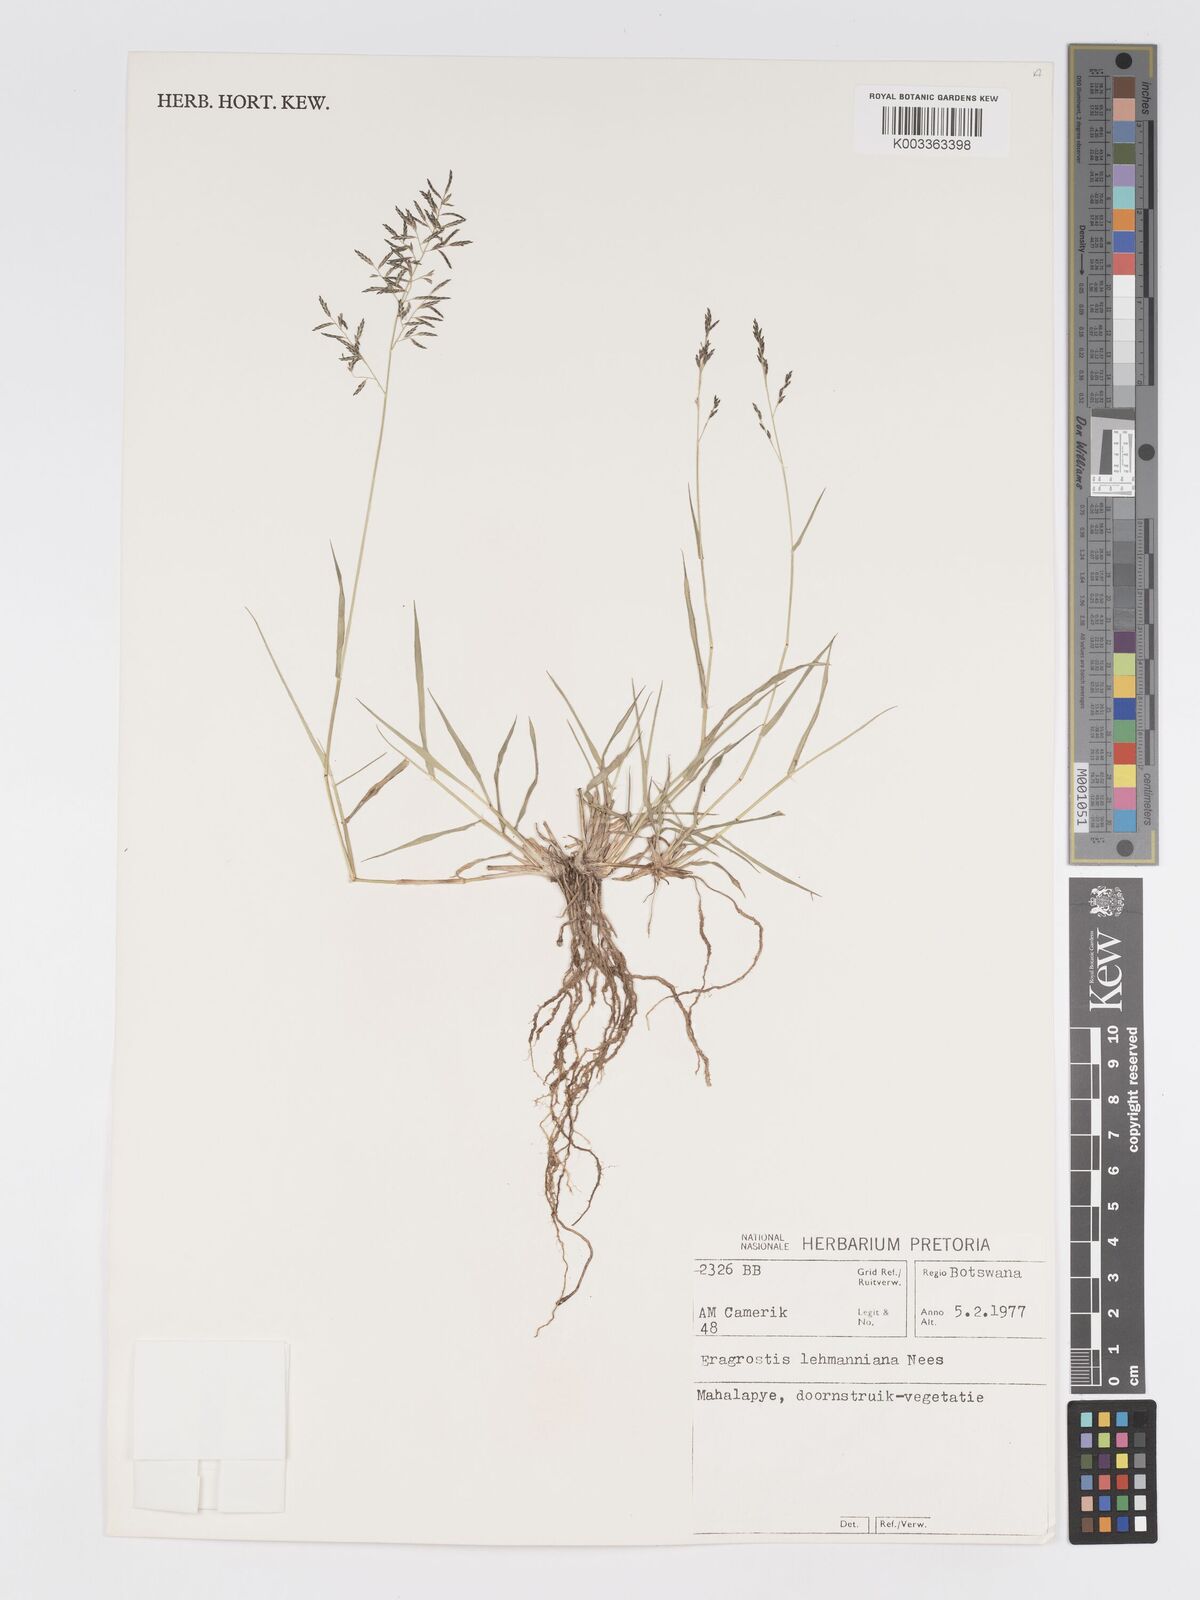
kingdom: Plantae
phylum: Tracheophyta
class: Liliopsida
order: Poales
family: Poaceae
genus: Eragrostis
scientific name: Eragrostis lehmanniana
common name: Lehmann lovegrass
